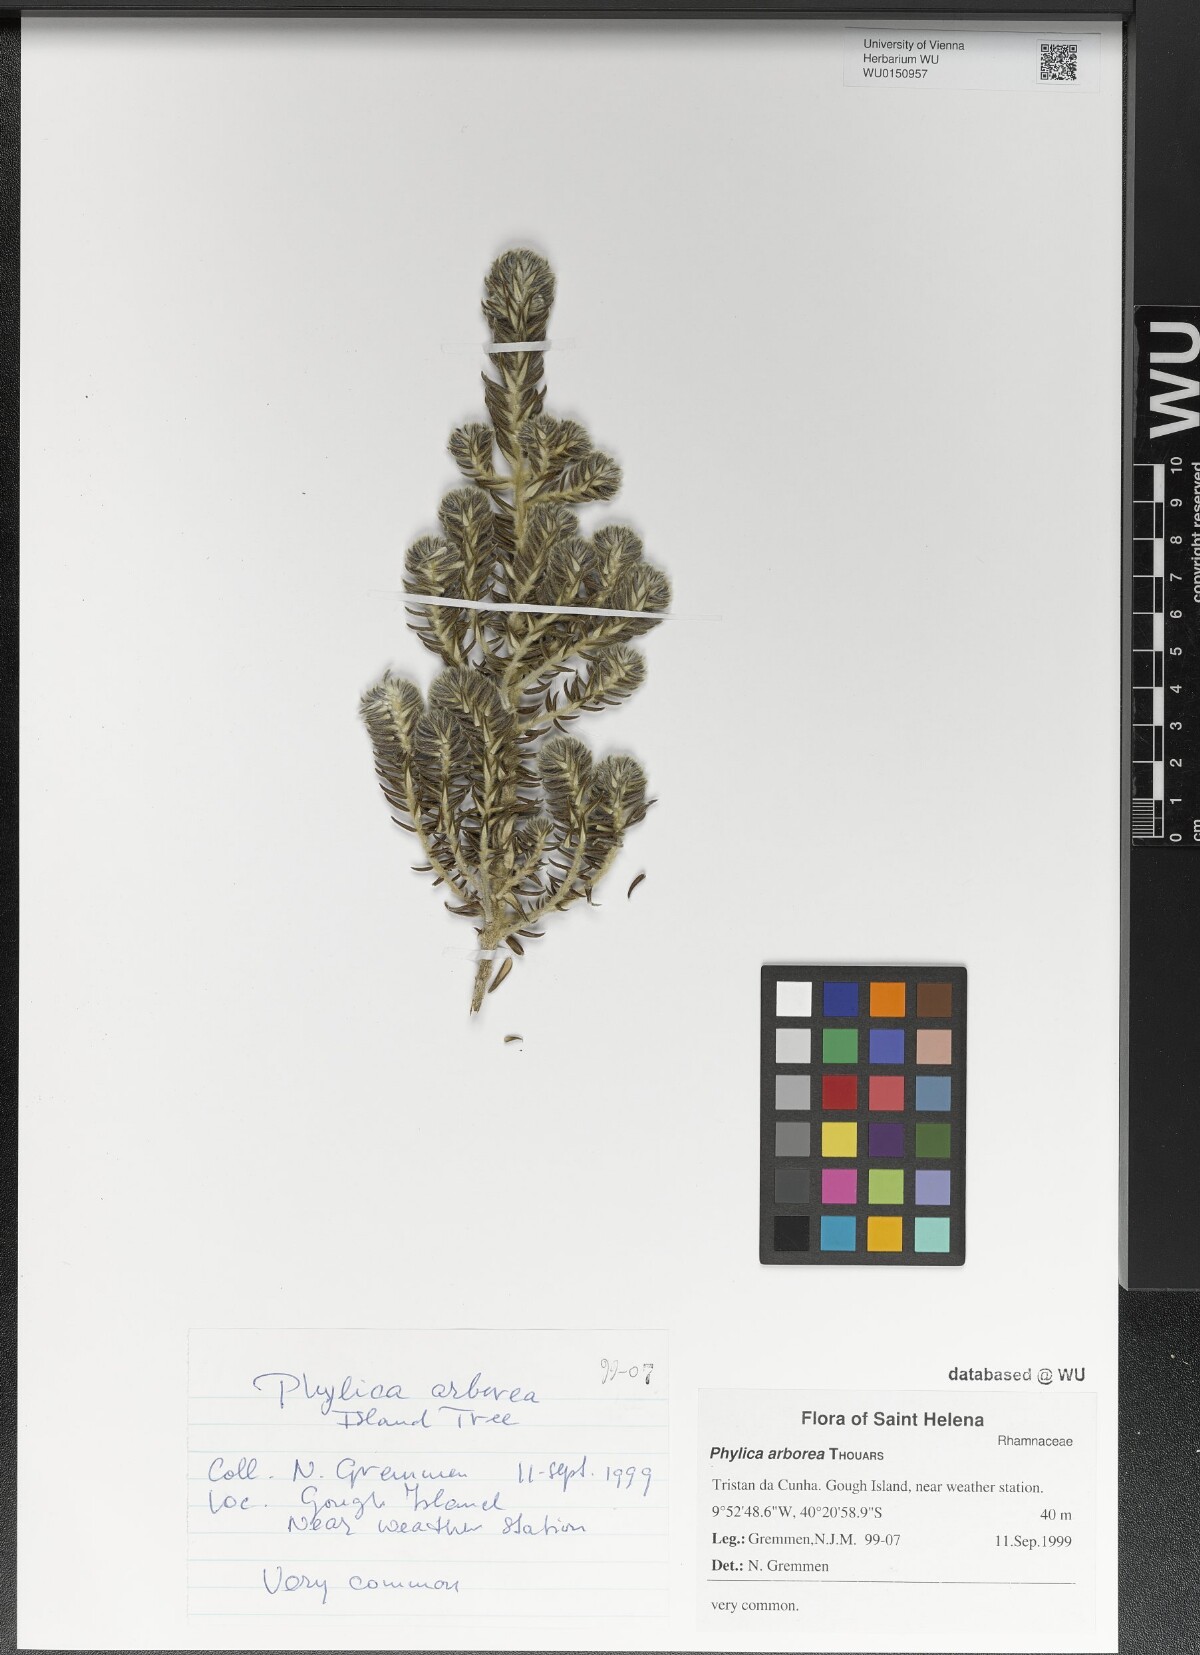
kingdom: Plantae
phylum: Tracheophyta
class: Magnoliopsida
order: Rosales
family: Rhamnaceae
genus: Phylica
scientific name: Phylica arborea
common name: Island cape myrtle
